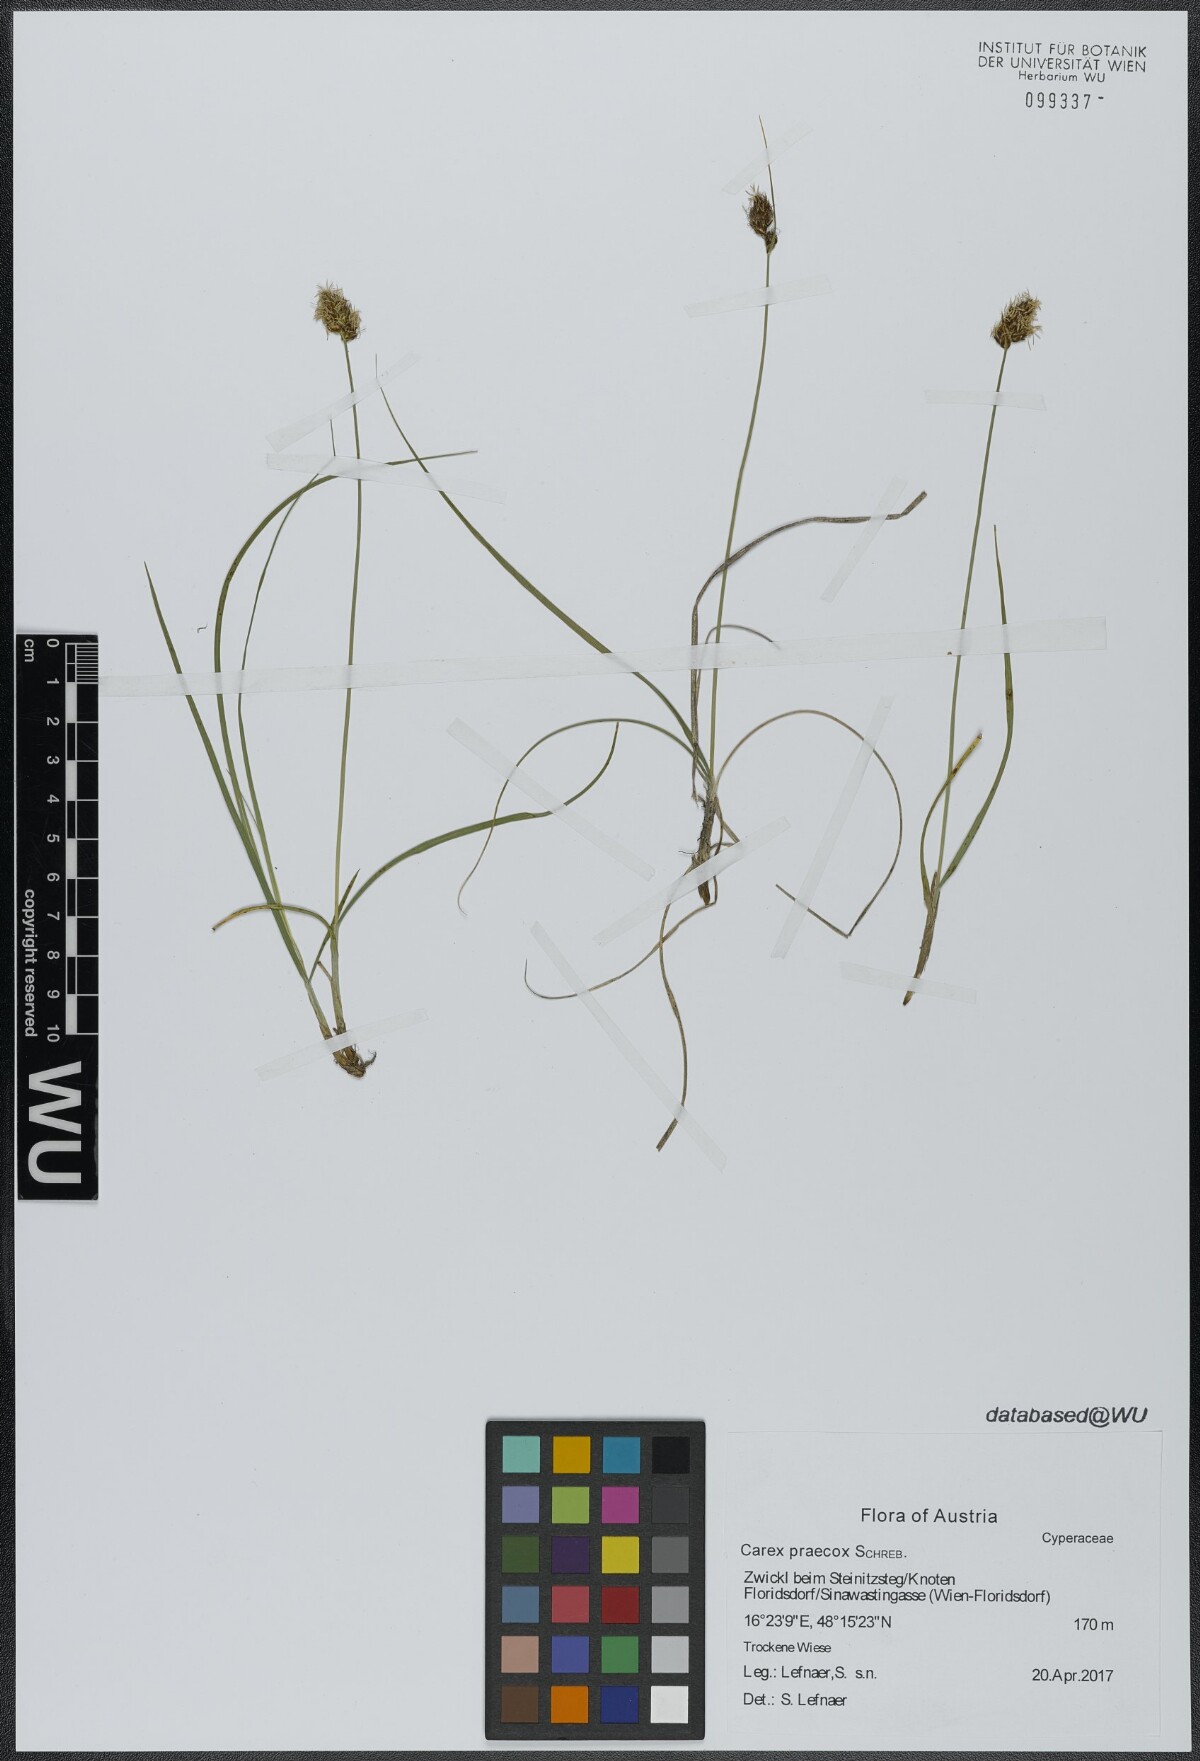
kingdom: Plantae
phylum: Tracheophyta
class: Liliopsida
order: Poales
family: Cyperaceae
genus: Carex
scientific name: Carex stenophylla
